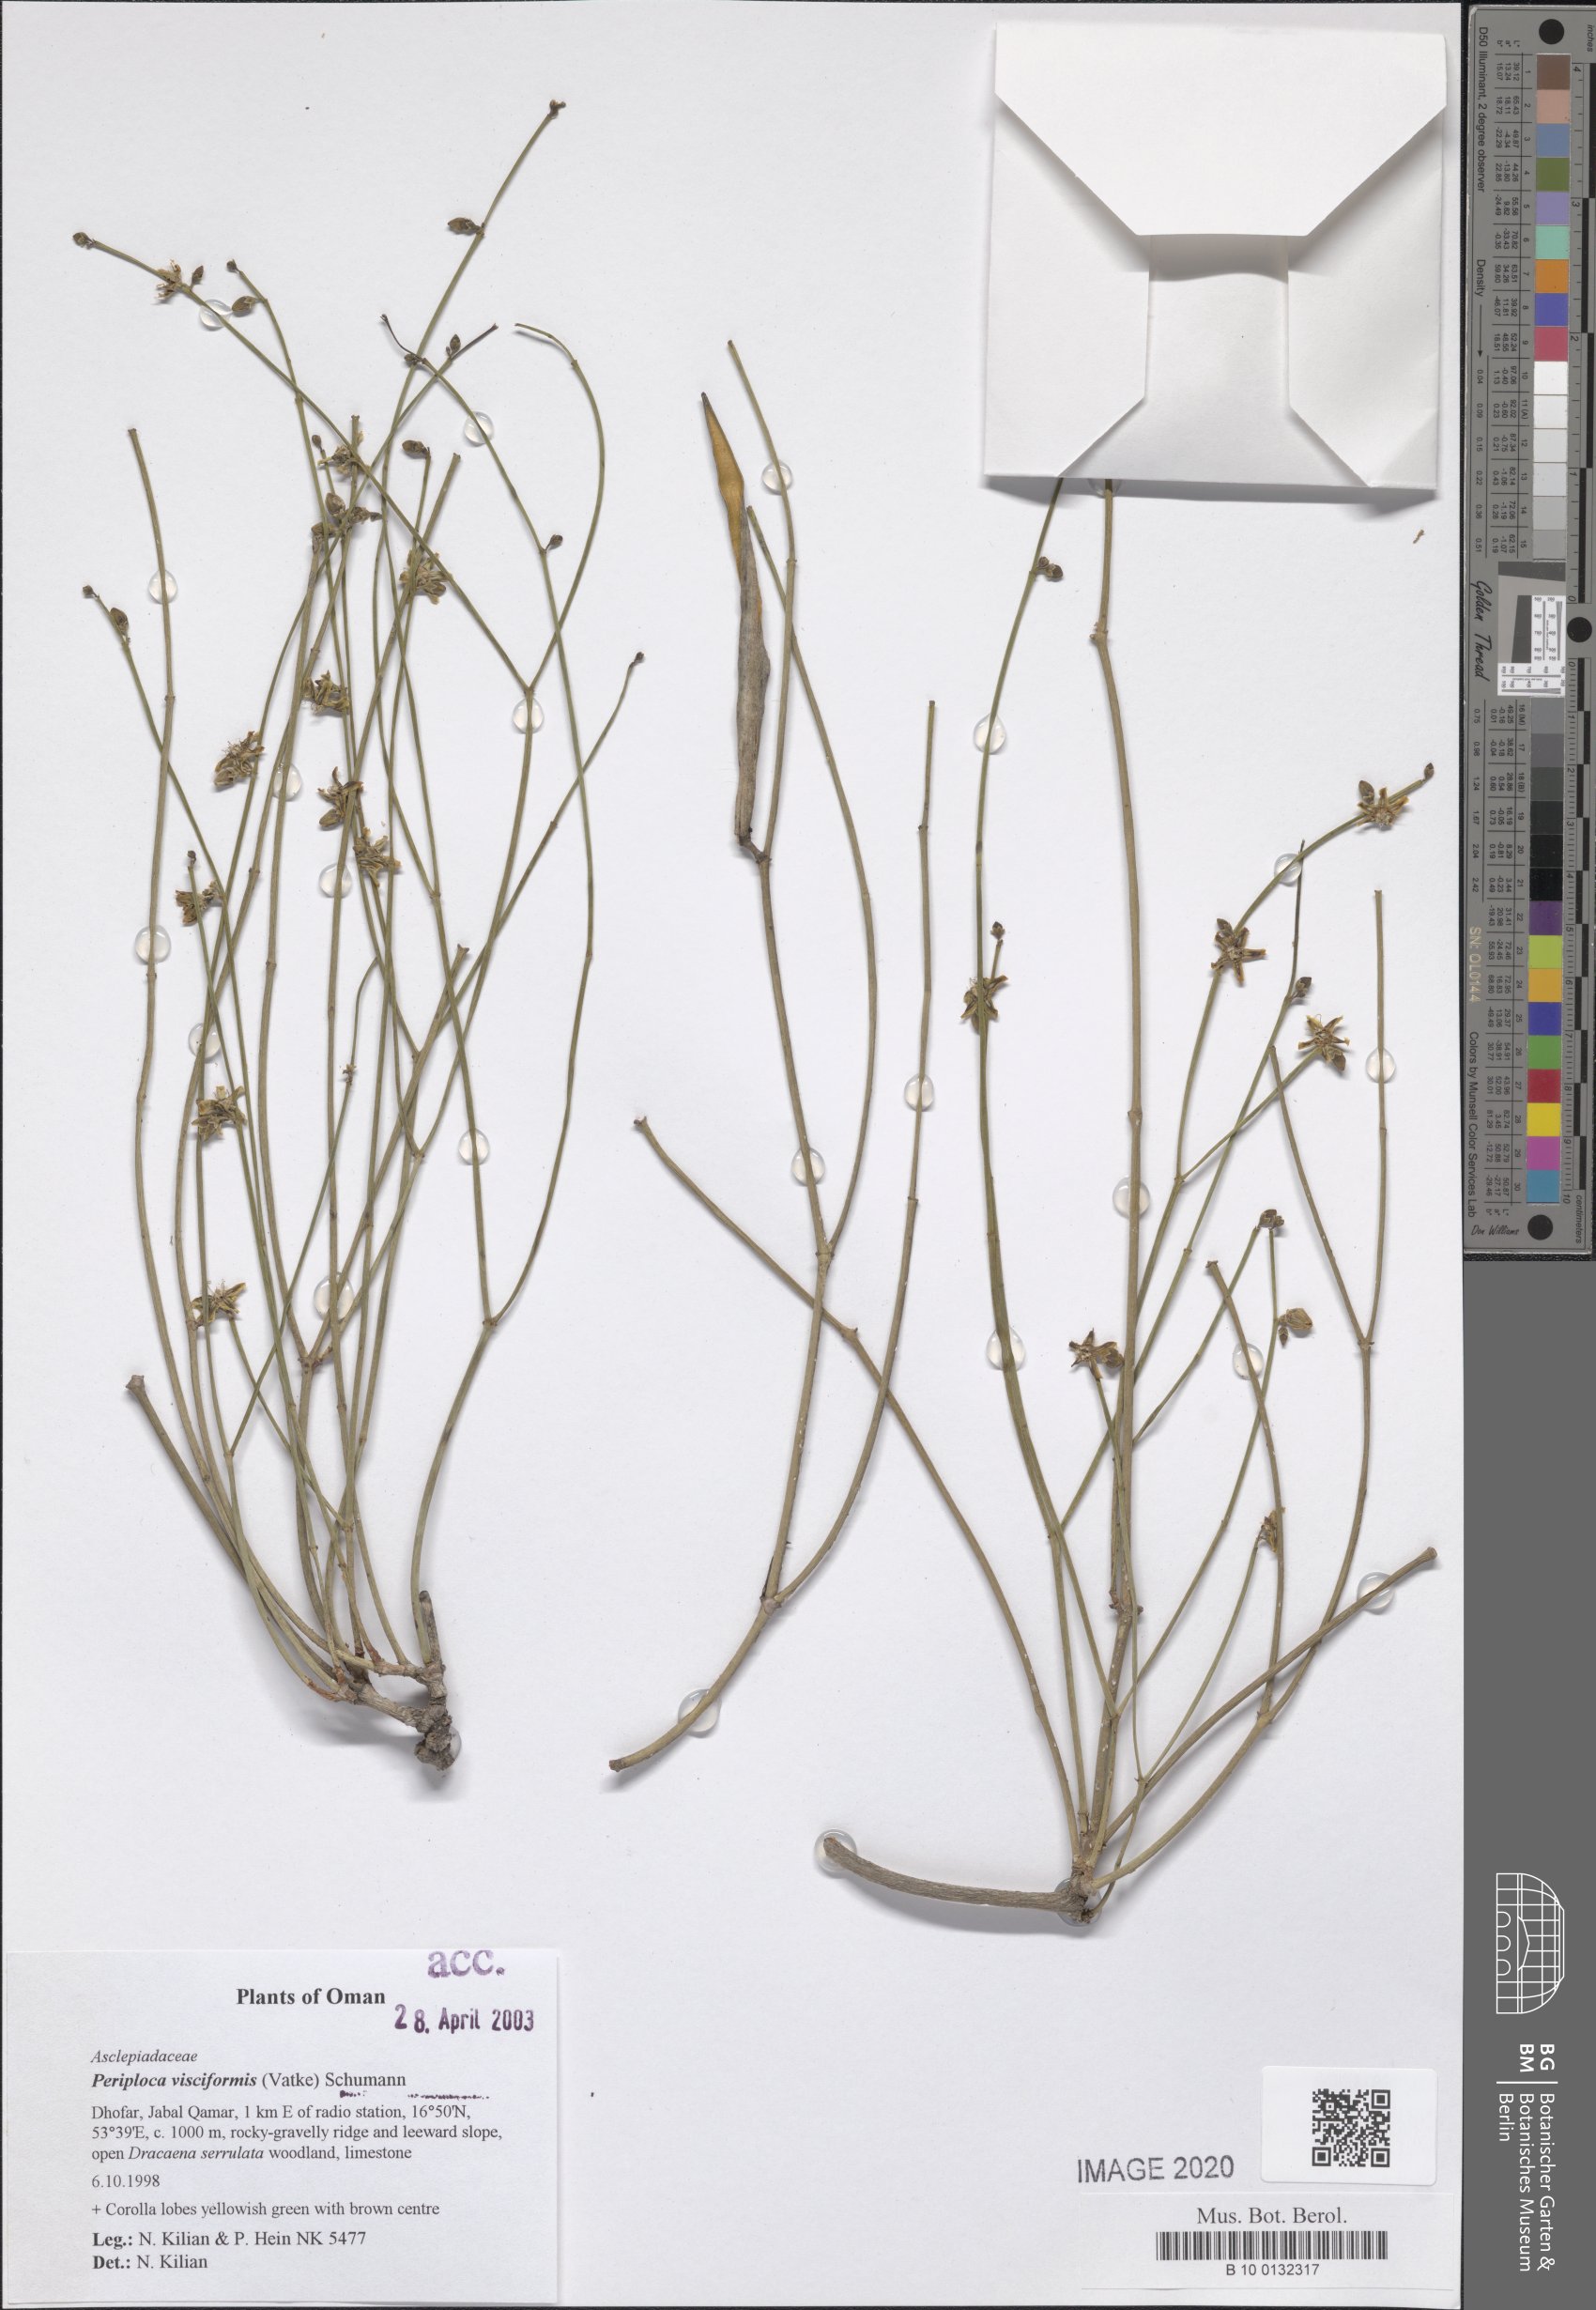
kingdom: Plantae
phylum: Tracheophyta
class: Magnoliopsida
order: Gentianales
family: Apocynaceae
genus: Periploca
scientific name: Periploca aphylla
